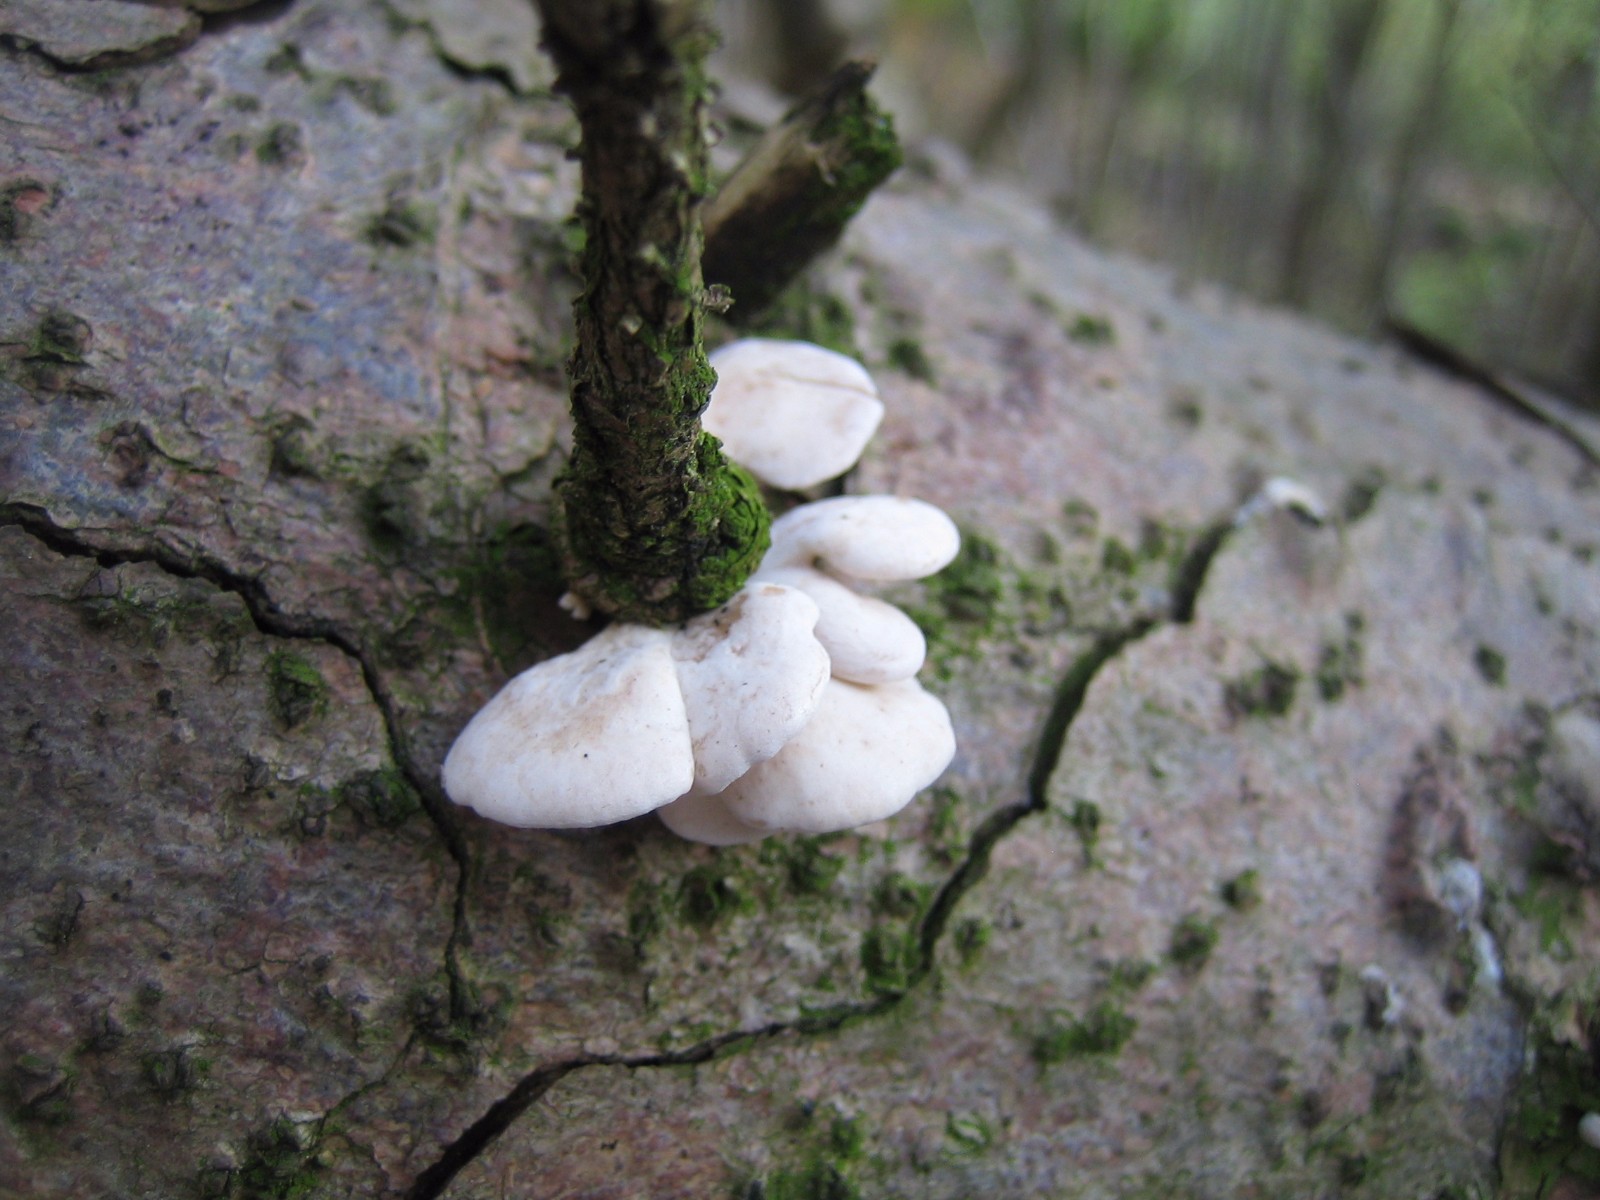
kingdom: Fungi
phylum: Basidiomycota
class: Agaricomycetes
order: Agaricales
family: Mycenaceae
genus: Panellus
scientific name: Panellus mitis
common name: mild epaulethat
